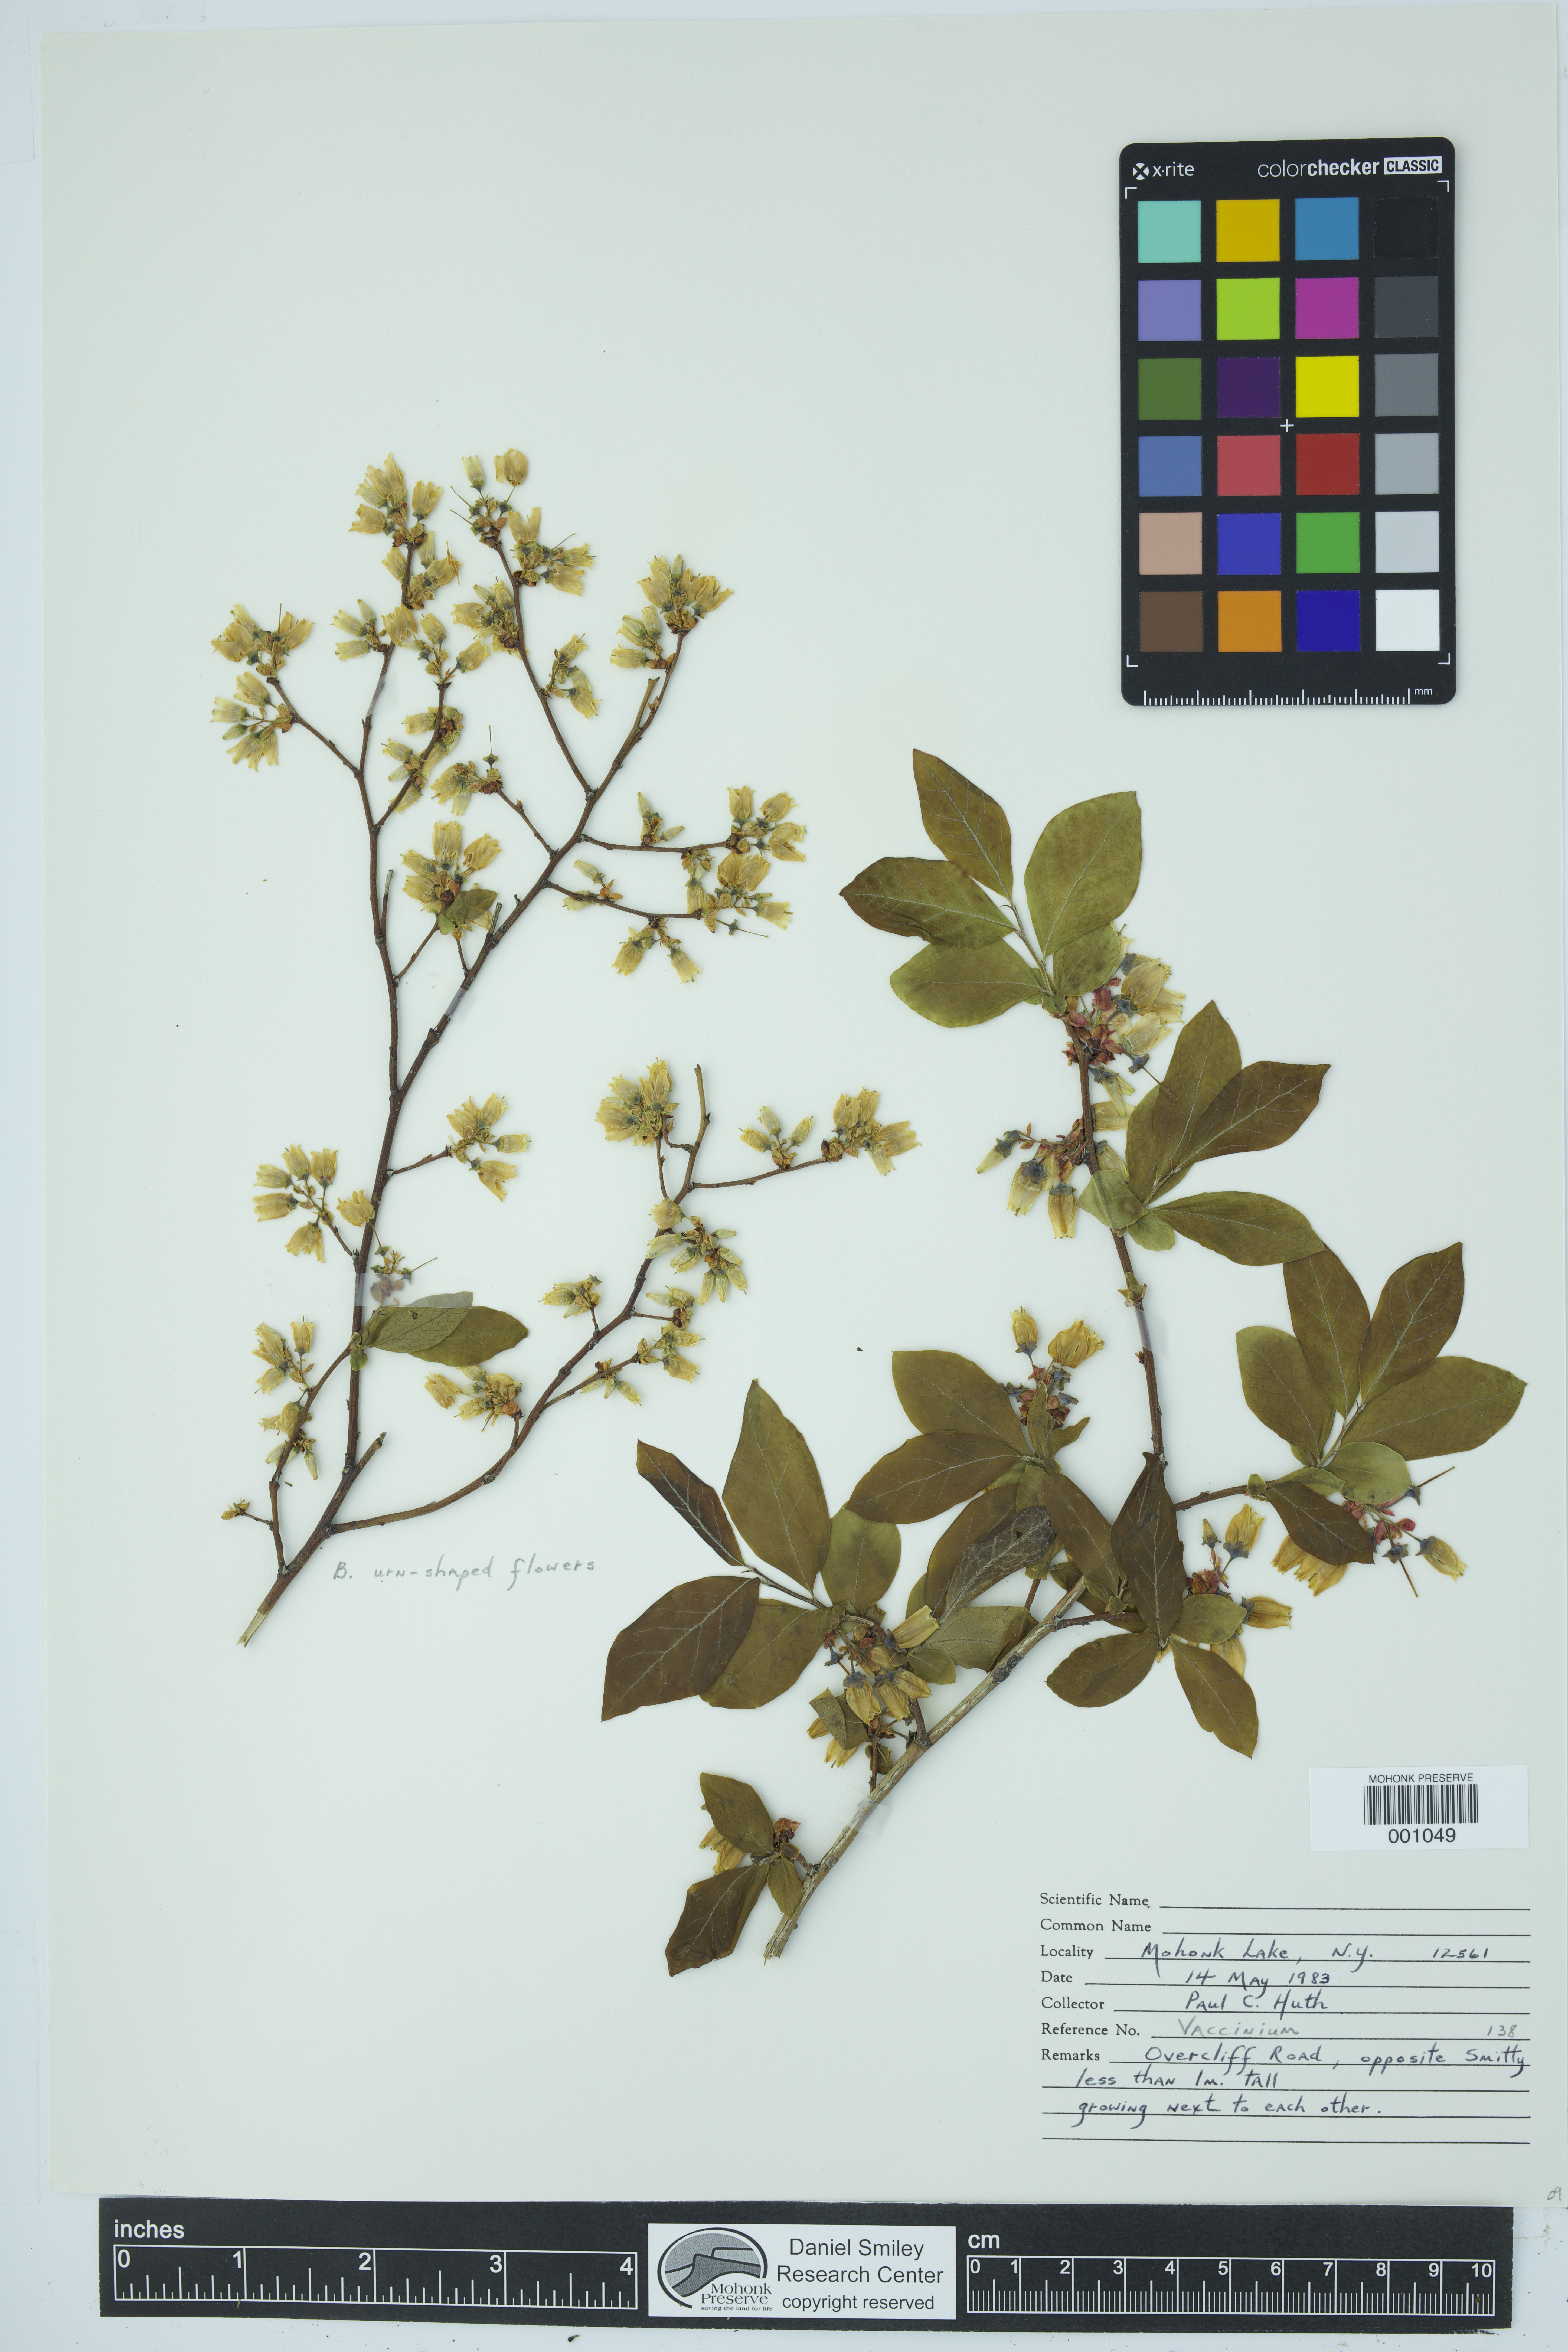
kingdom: Plantae
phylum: Tracheophyta
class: Magnoliopsida
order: Ericales
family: Ericaceae
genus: Vaccinium
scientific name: Vaccinium
